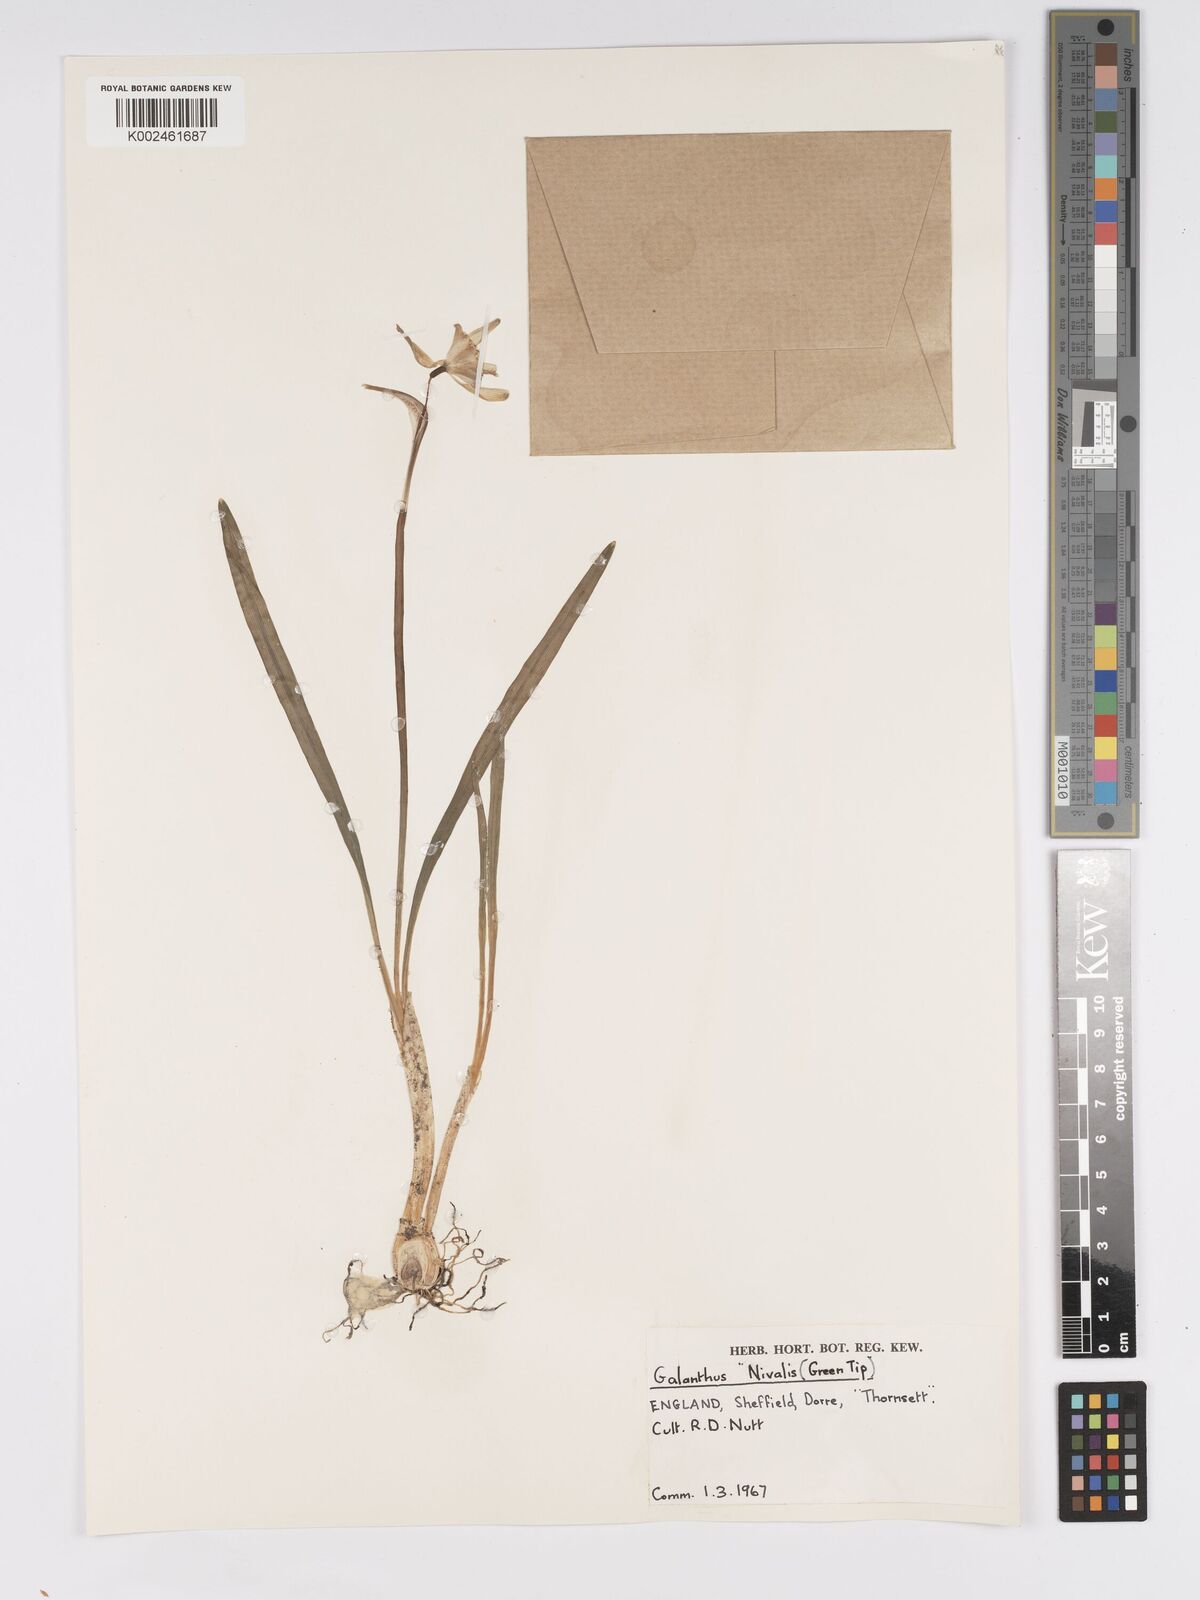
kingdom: Plantae
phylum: Tracheophyta
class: Liliopsida
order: Asparagales
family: Amaryllidaceae
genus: Galanthus
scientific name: Galanthus
